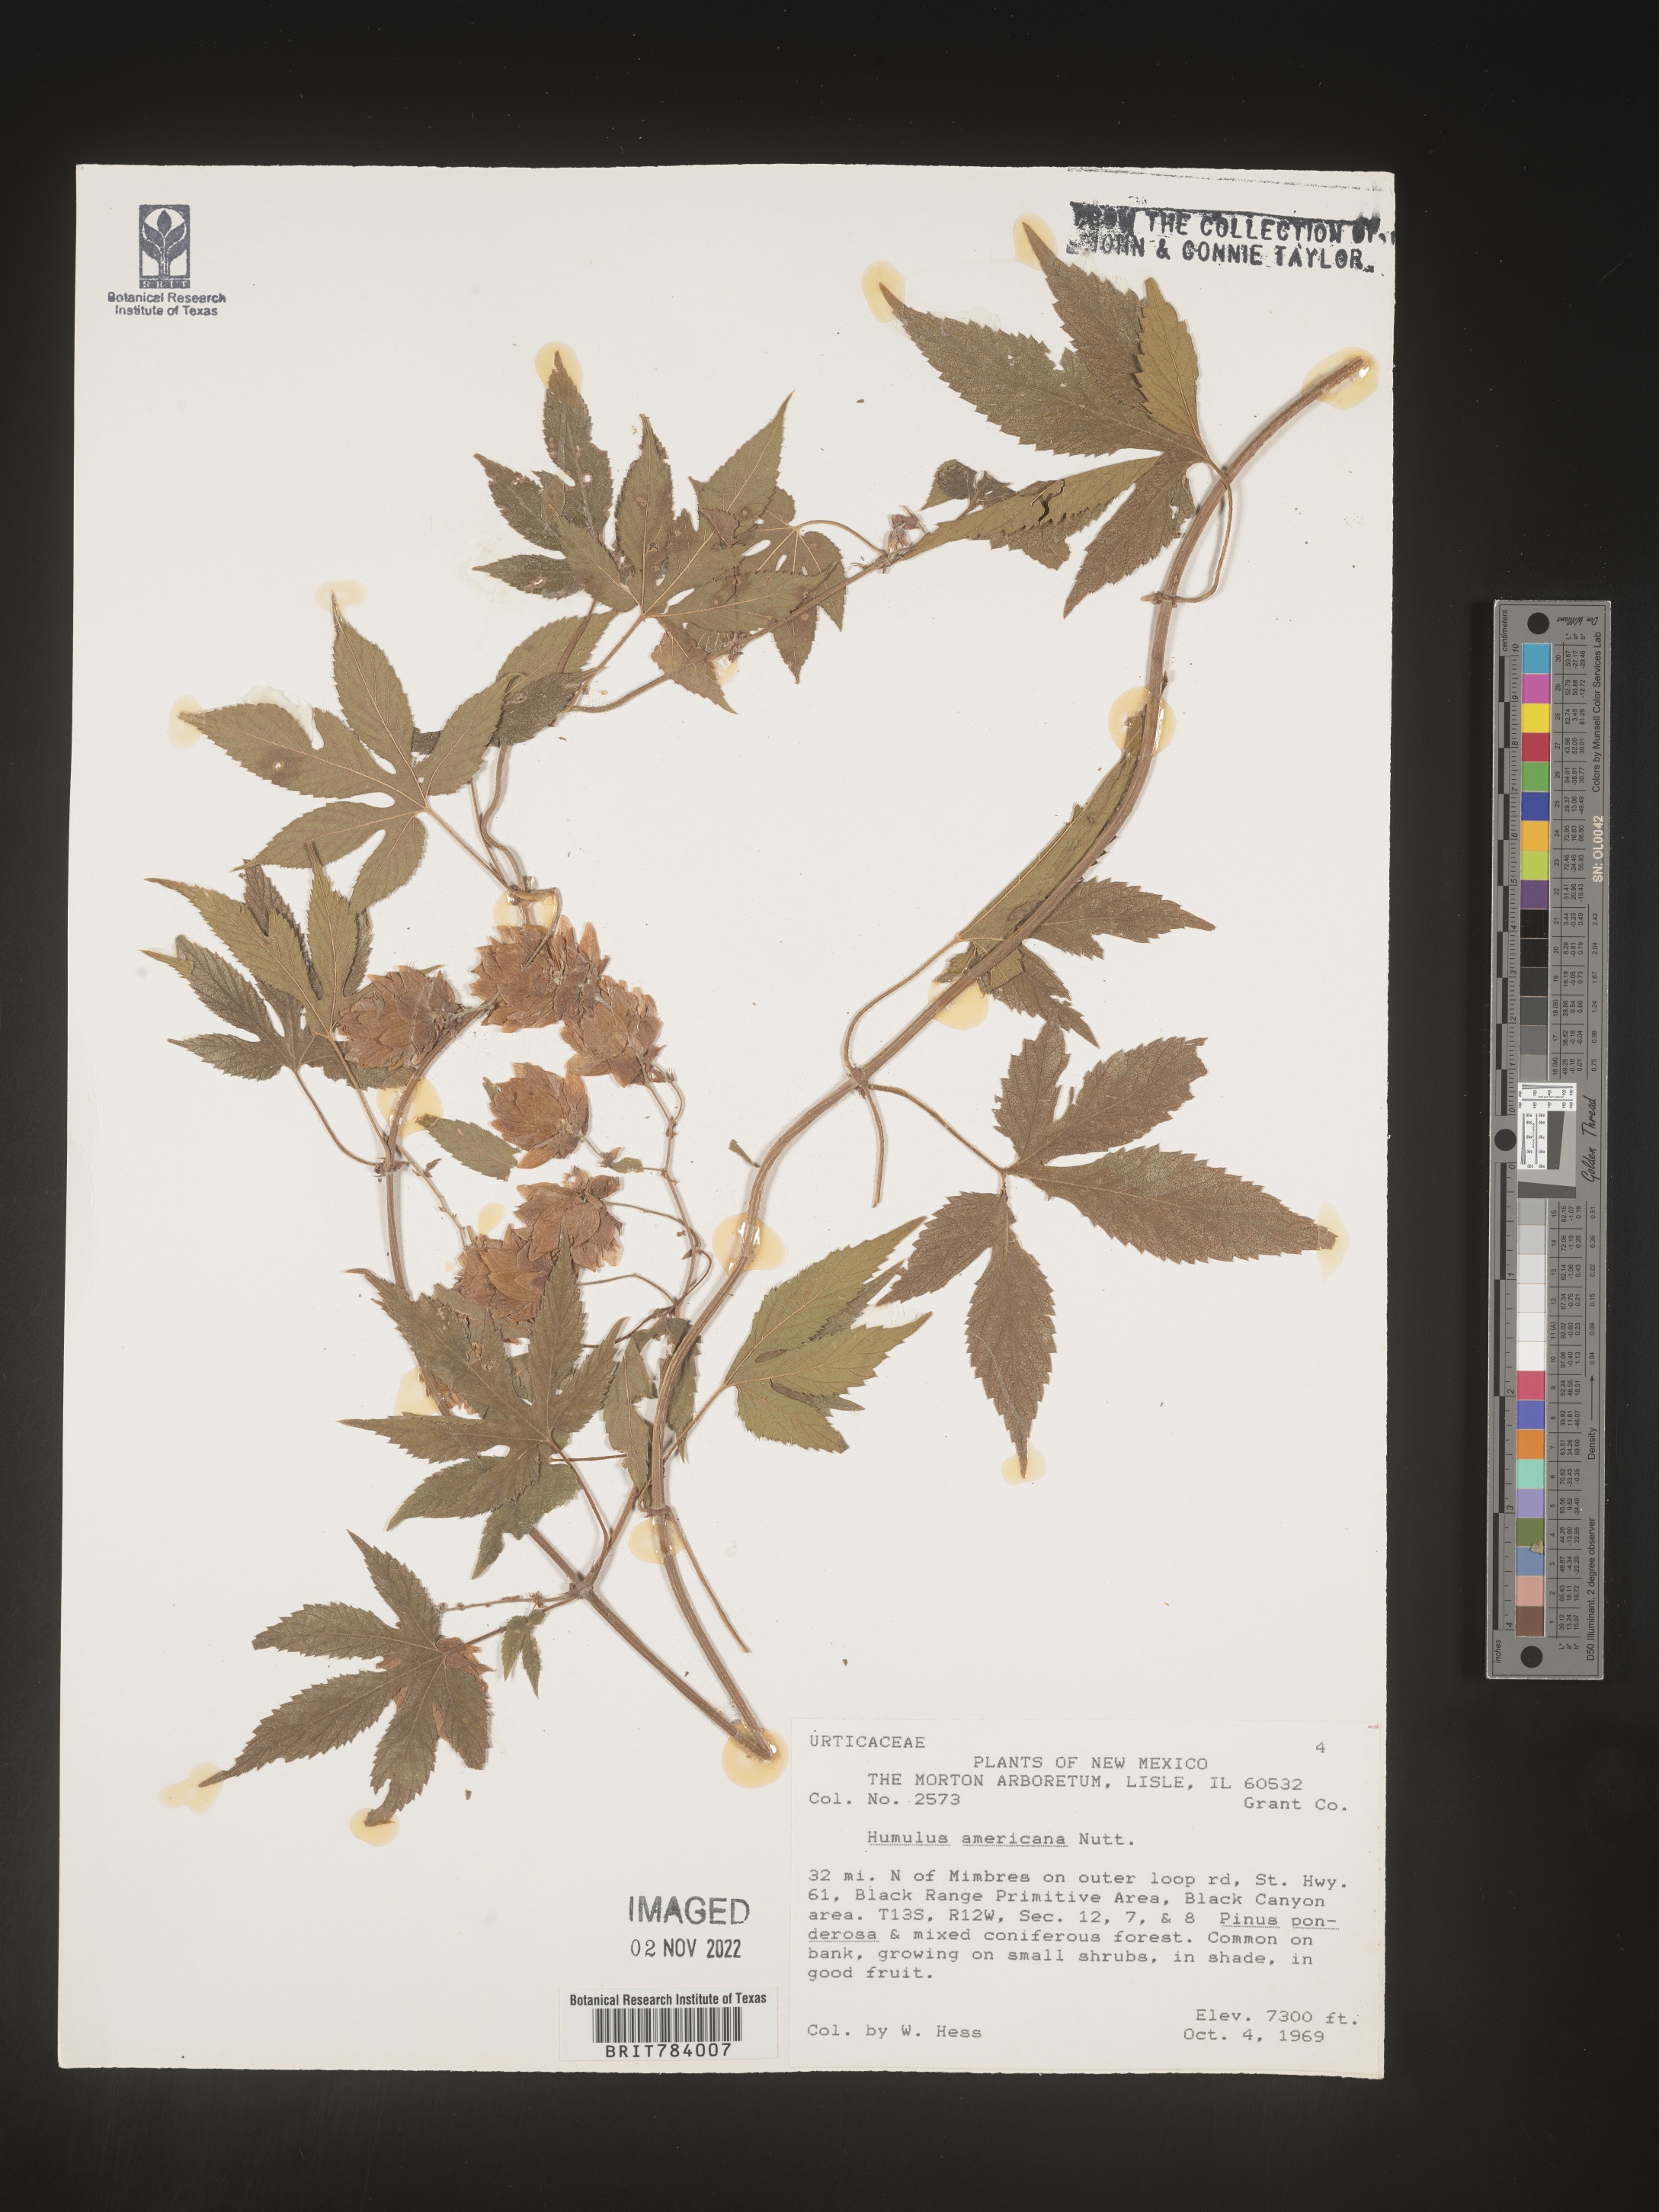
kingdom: Plantae
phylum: Tracheophyta
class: Magnoliopsida
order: Rosales
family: Cannabaceae
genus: Humulus
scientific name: Humulus americanus
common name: American hops
